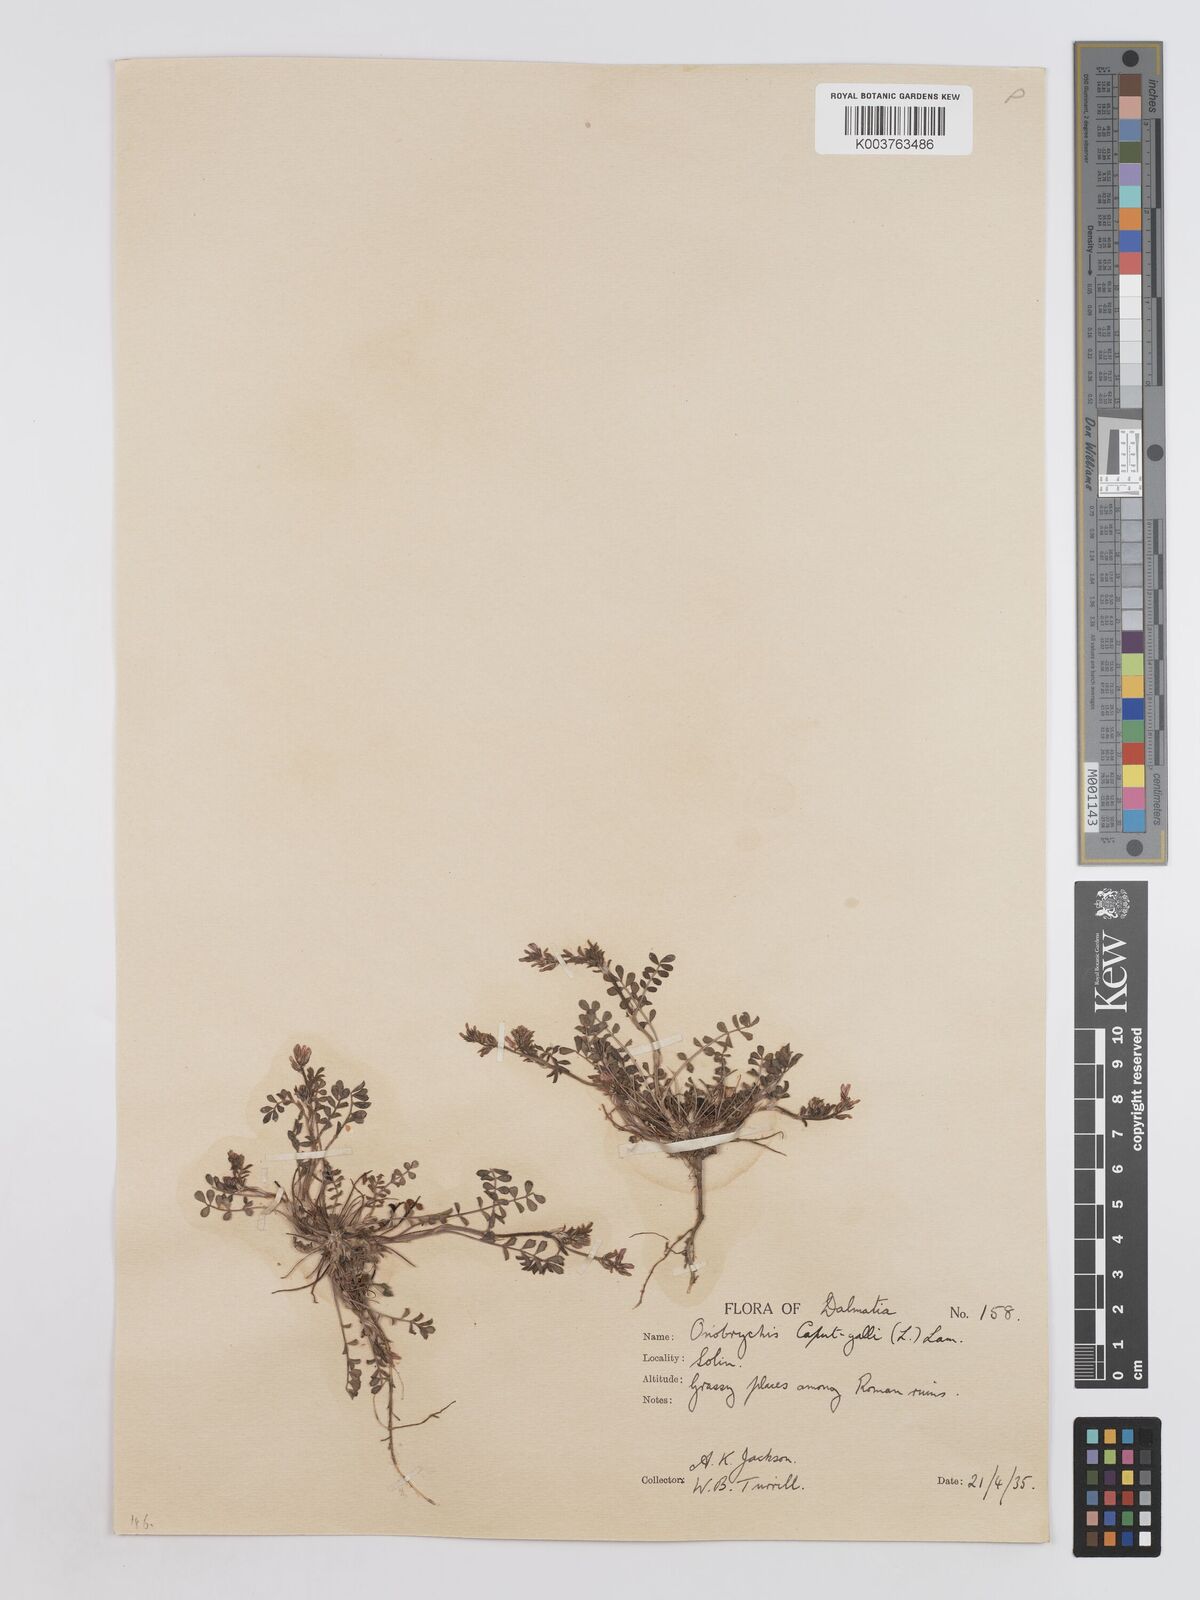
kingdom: Plantae
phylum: Tracheophyta
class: Magnoliopsida
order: Fabales
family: Fabaceae
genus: Onobrychis
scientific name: Onobrychis caput-galli
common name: Cockscomb sainfoin
